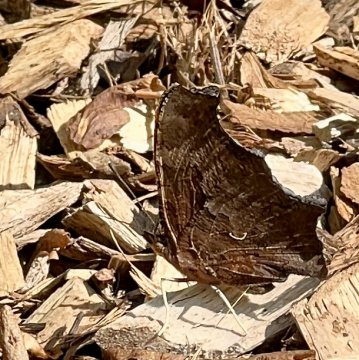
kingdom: Animalia
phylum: Arthropoda
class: Insecta
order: Lepidoptera
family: Nymphalidae
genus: Polygonia
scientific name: Polygonia comma
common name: Eastern Comma
